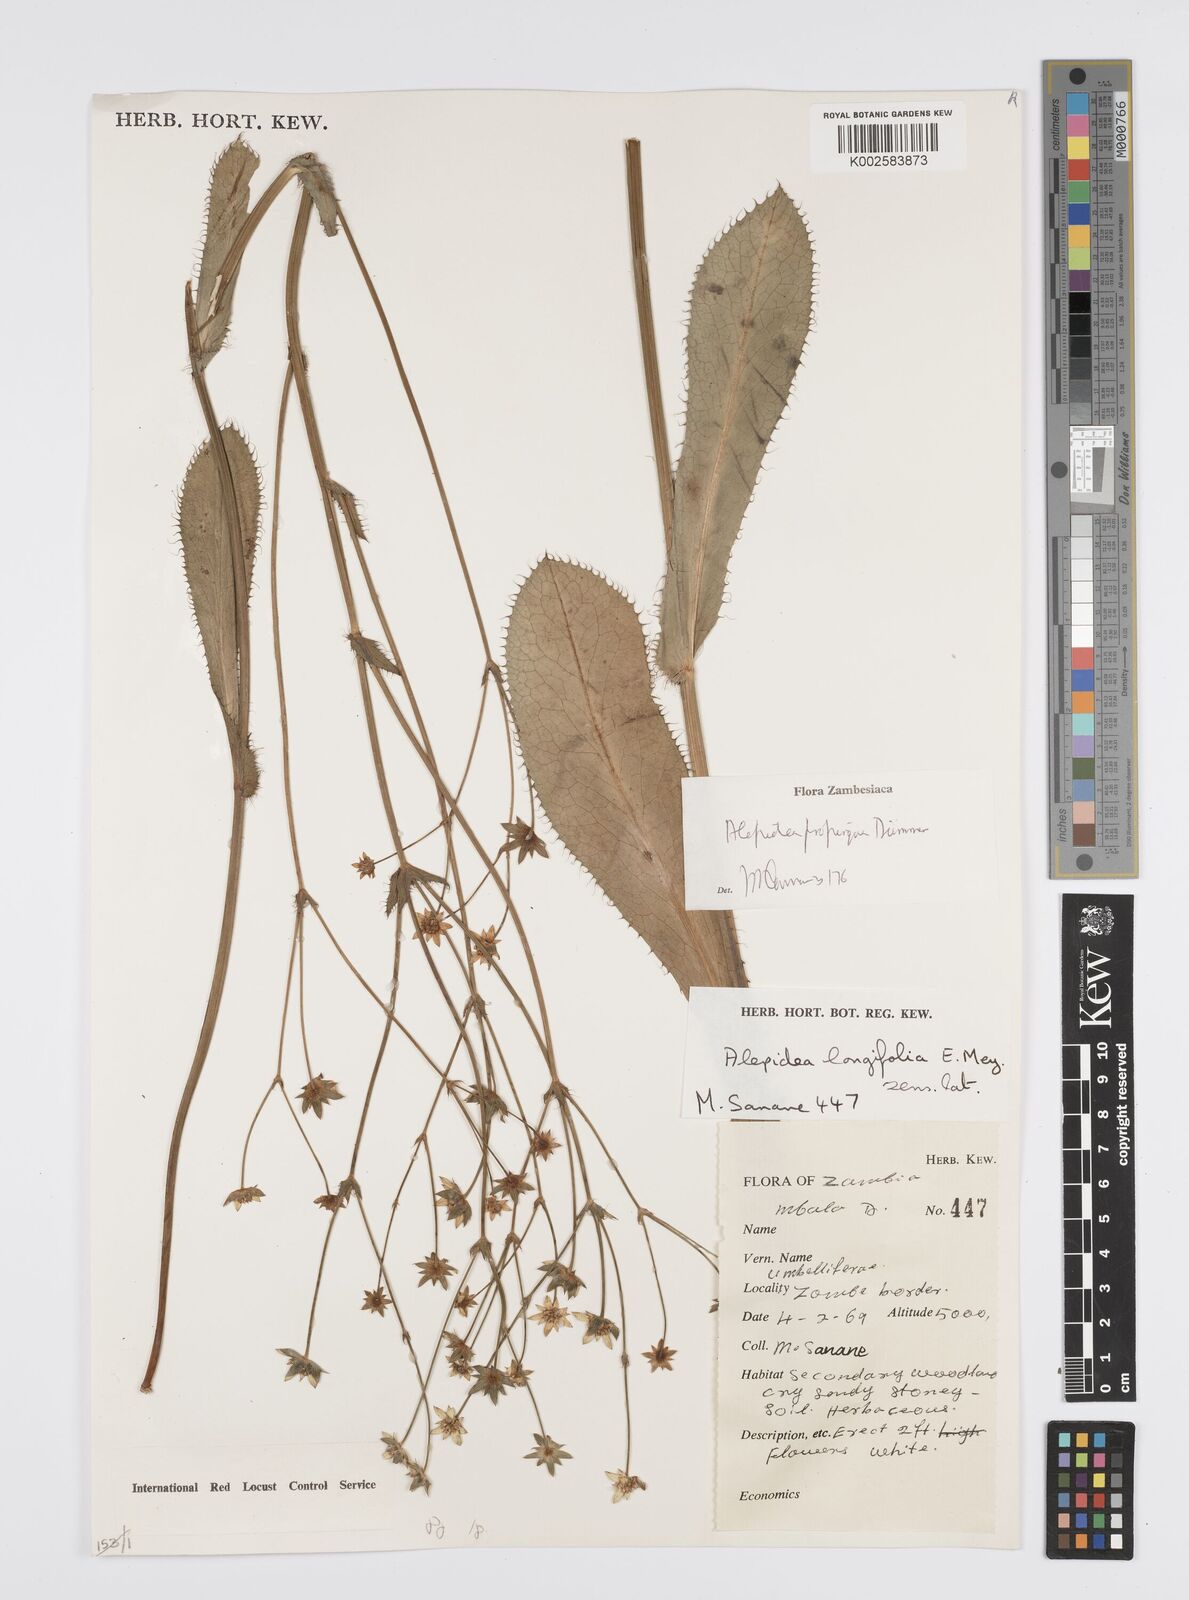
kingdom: Plantae
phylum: Tracheophyta
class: Magnoliopsida
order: Apiales
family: Apiaceae
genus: Alepidea
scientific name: Alepidea
